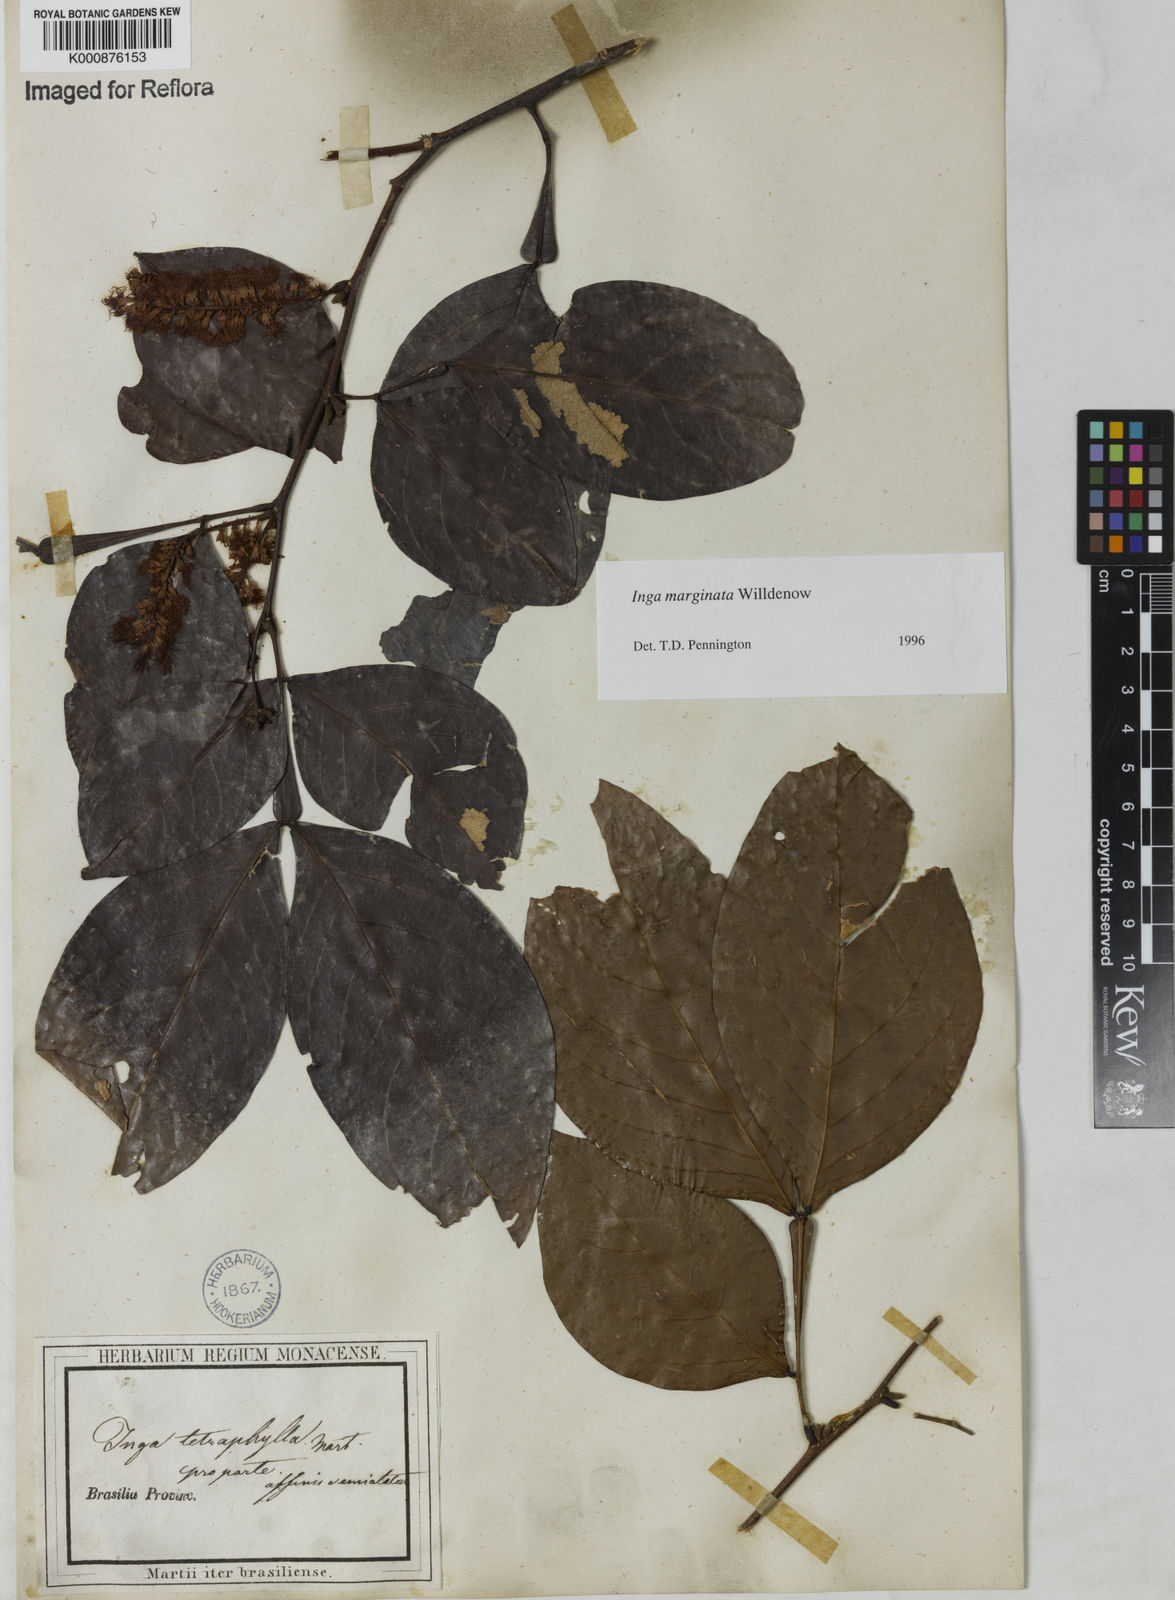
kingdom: Plantae
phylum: Tracheophyta
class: Magnoliopsida
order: Fabales
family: Fabaceae
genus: Inga
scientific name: Inga marginata
